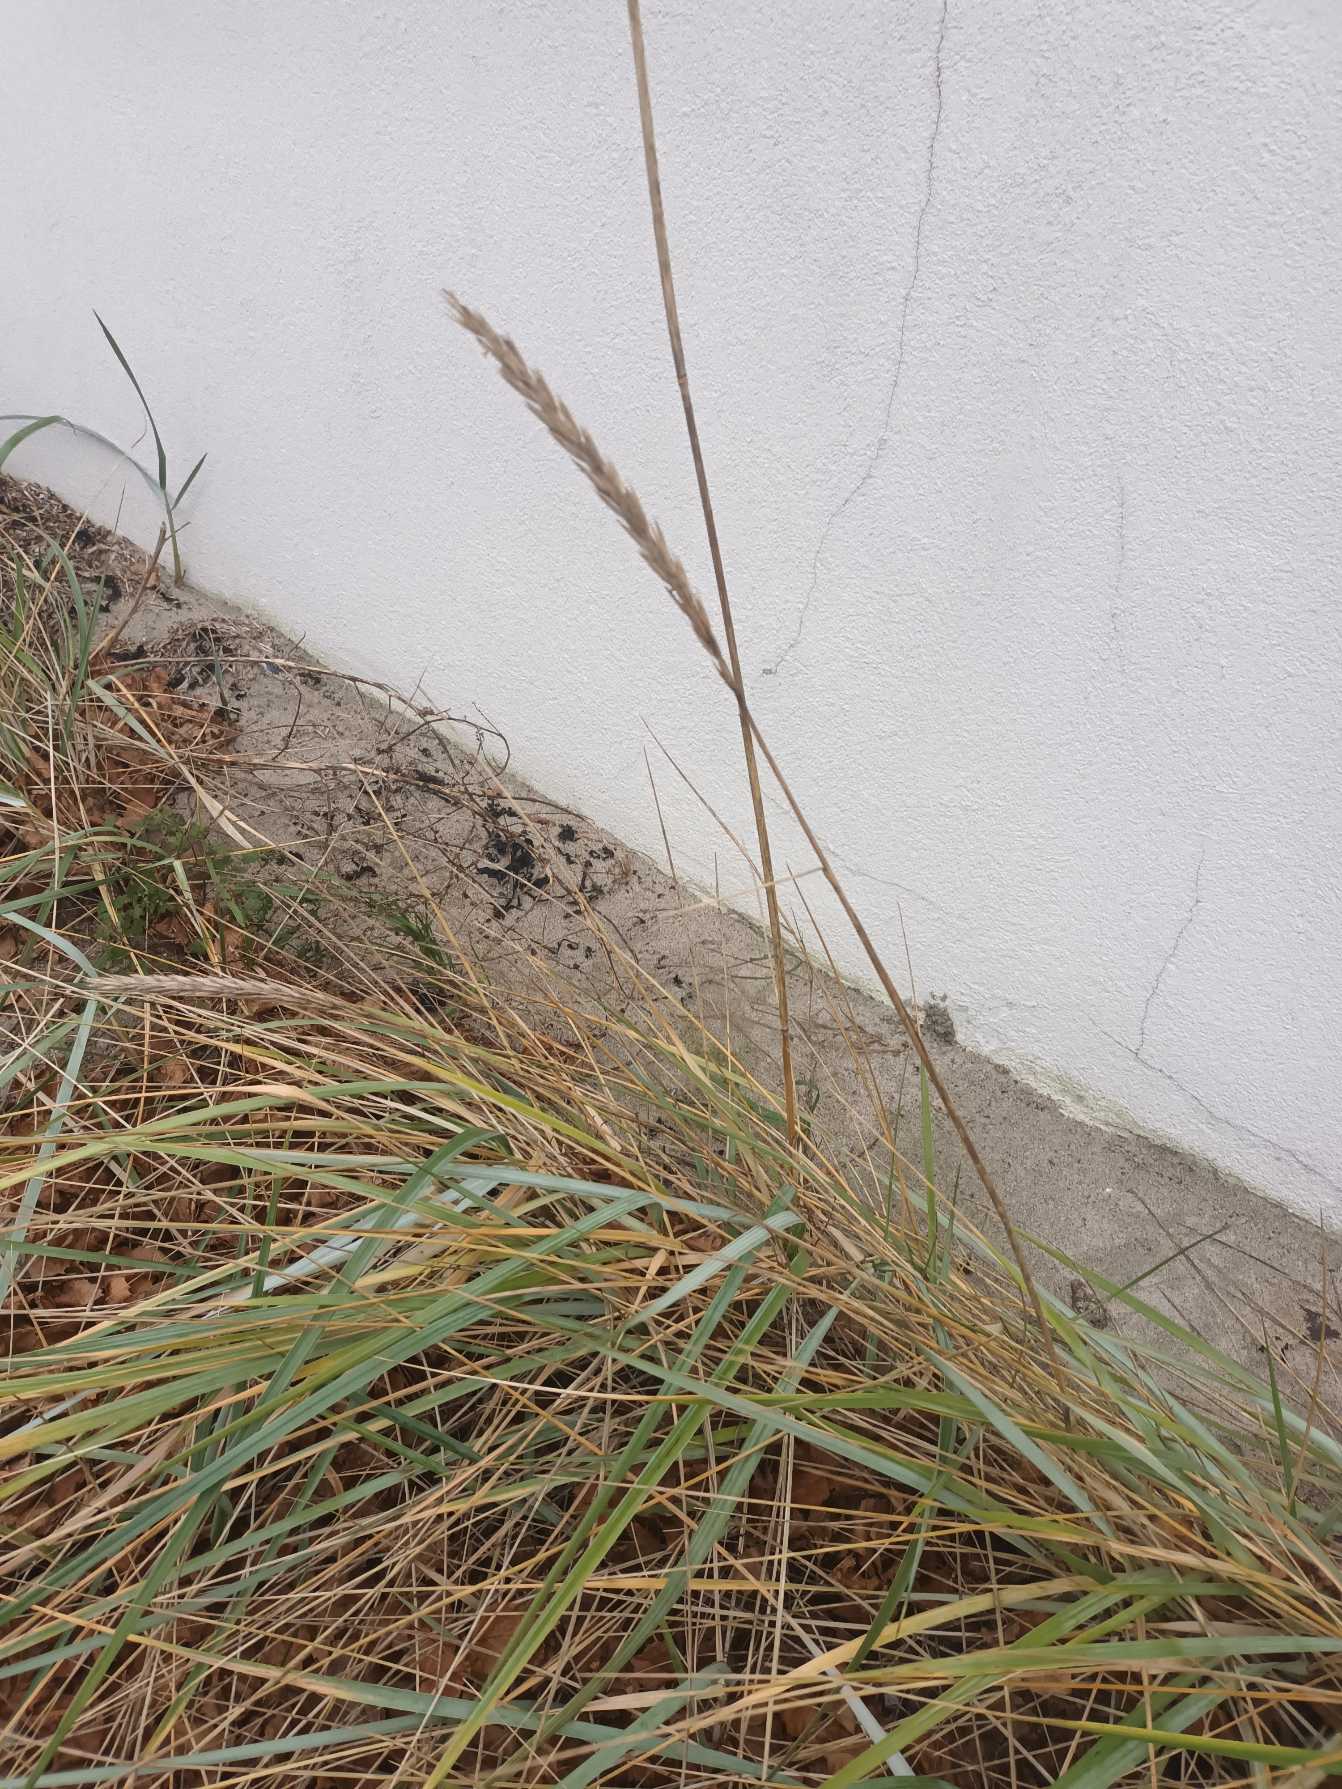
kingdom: Plantae
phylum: Tracheophyta
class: Liliopsida
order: Poales
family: Poaceae
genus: Leymus
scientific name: Leymus arenarius
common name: Marehalm
